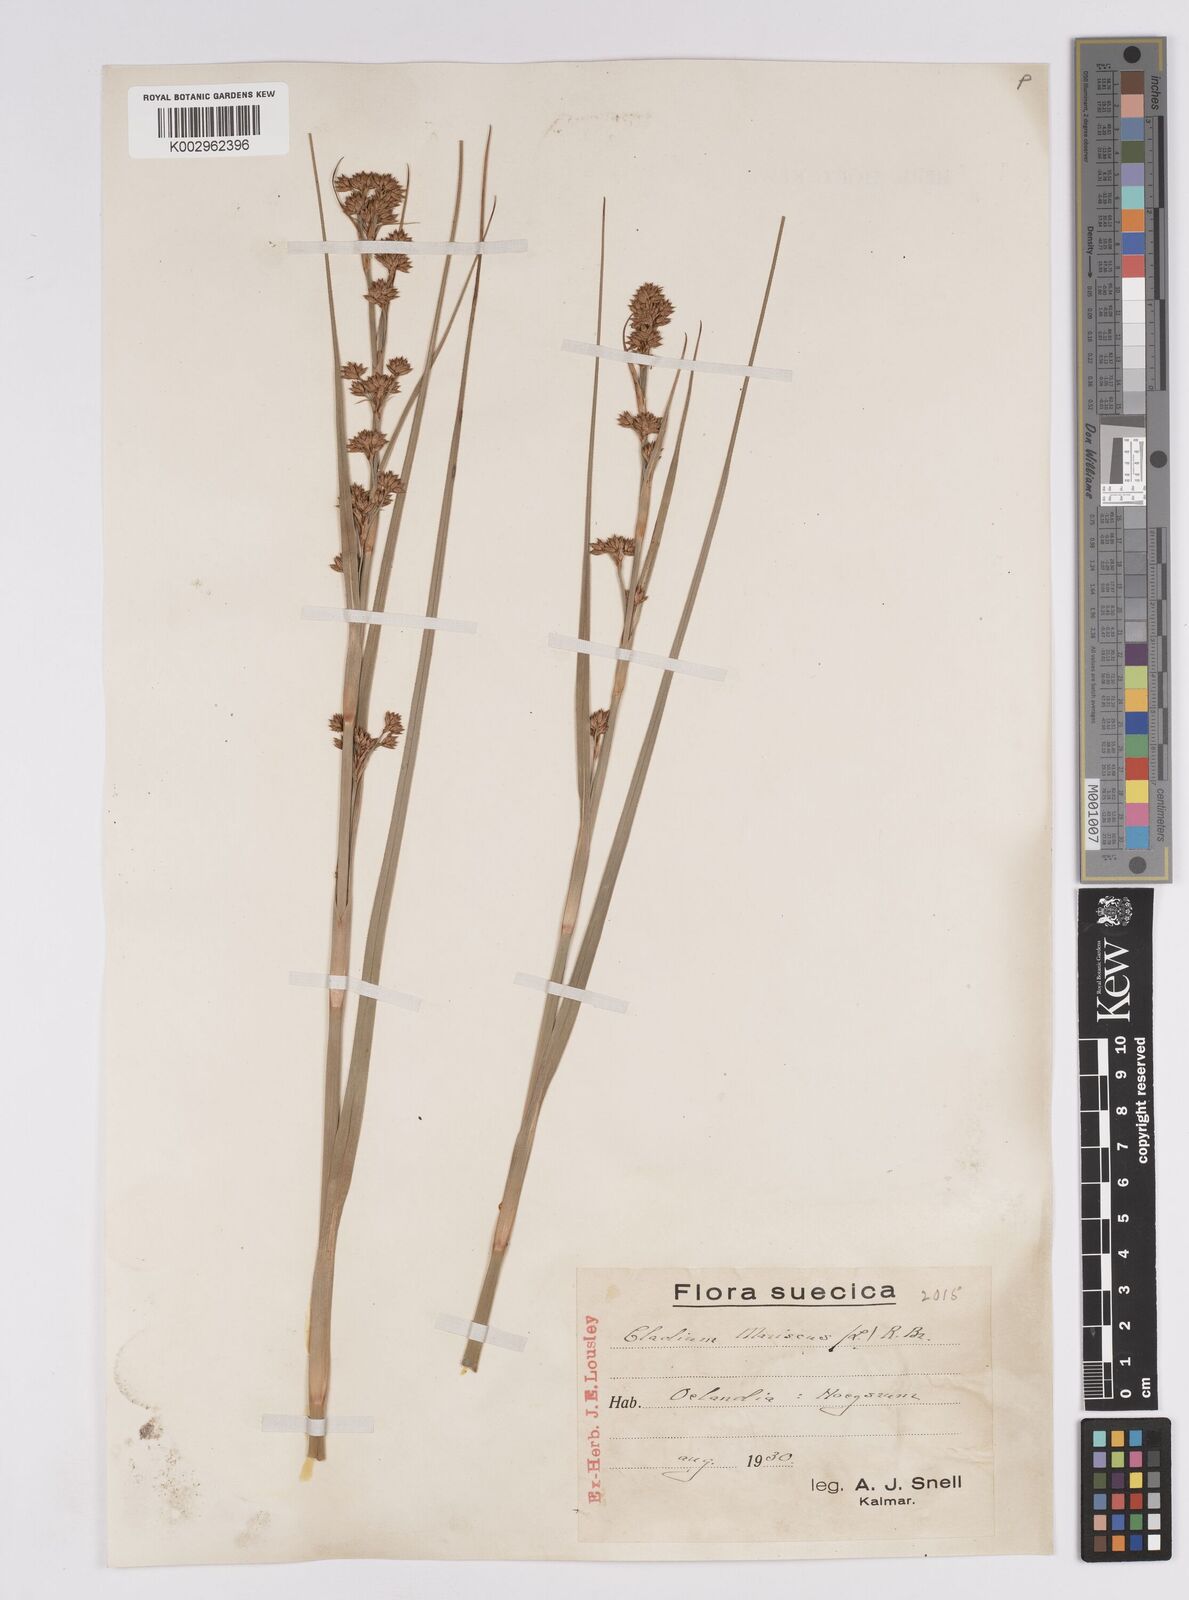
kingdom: Plantae
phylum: Tracheophyta
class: Liliopsida
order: Poales
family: Cyperaceae
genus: Cladium
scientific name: Cladium mariscus
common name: Great fen-sedge
